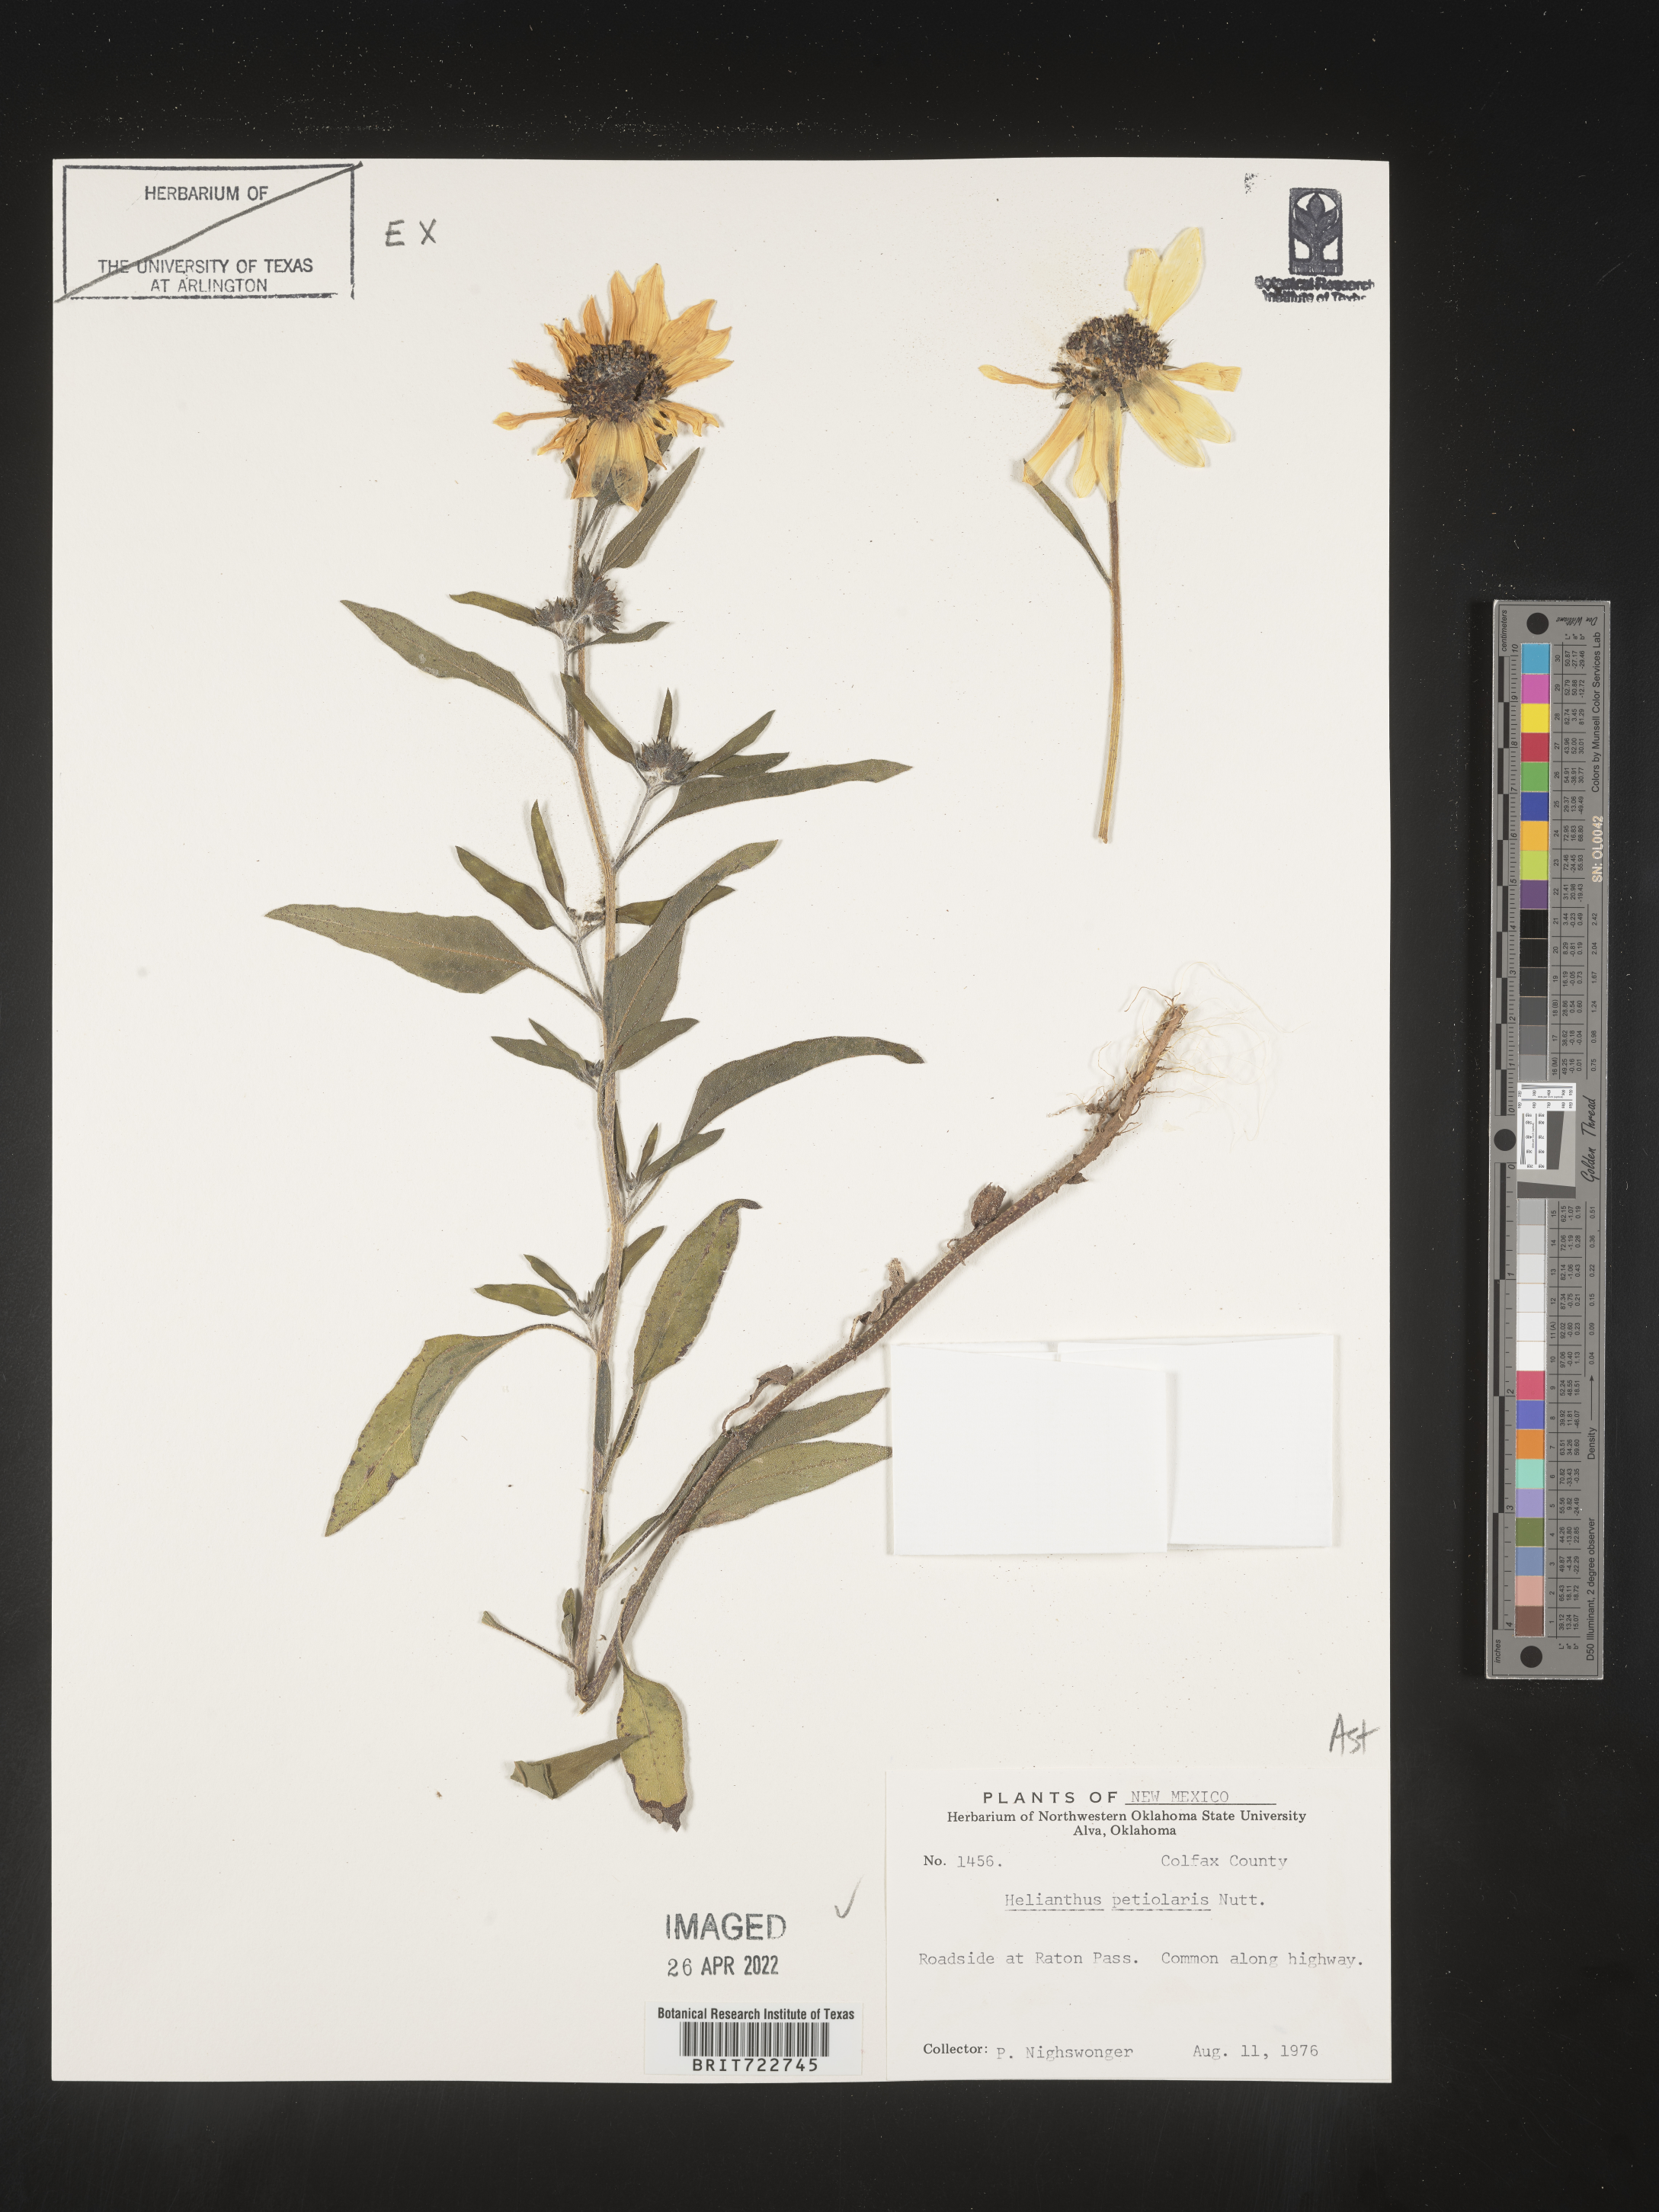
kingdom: Plantae
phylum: Tracheophyta
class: Magnoliopsida
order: Asterales
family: Asteraceae
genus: Helianthus
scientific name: Helianthus petiolaris
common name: Lesser sunflower
